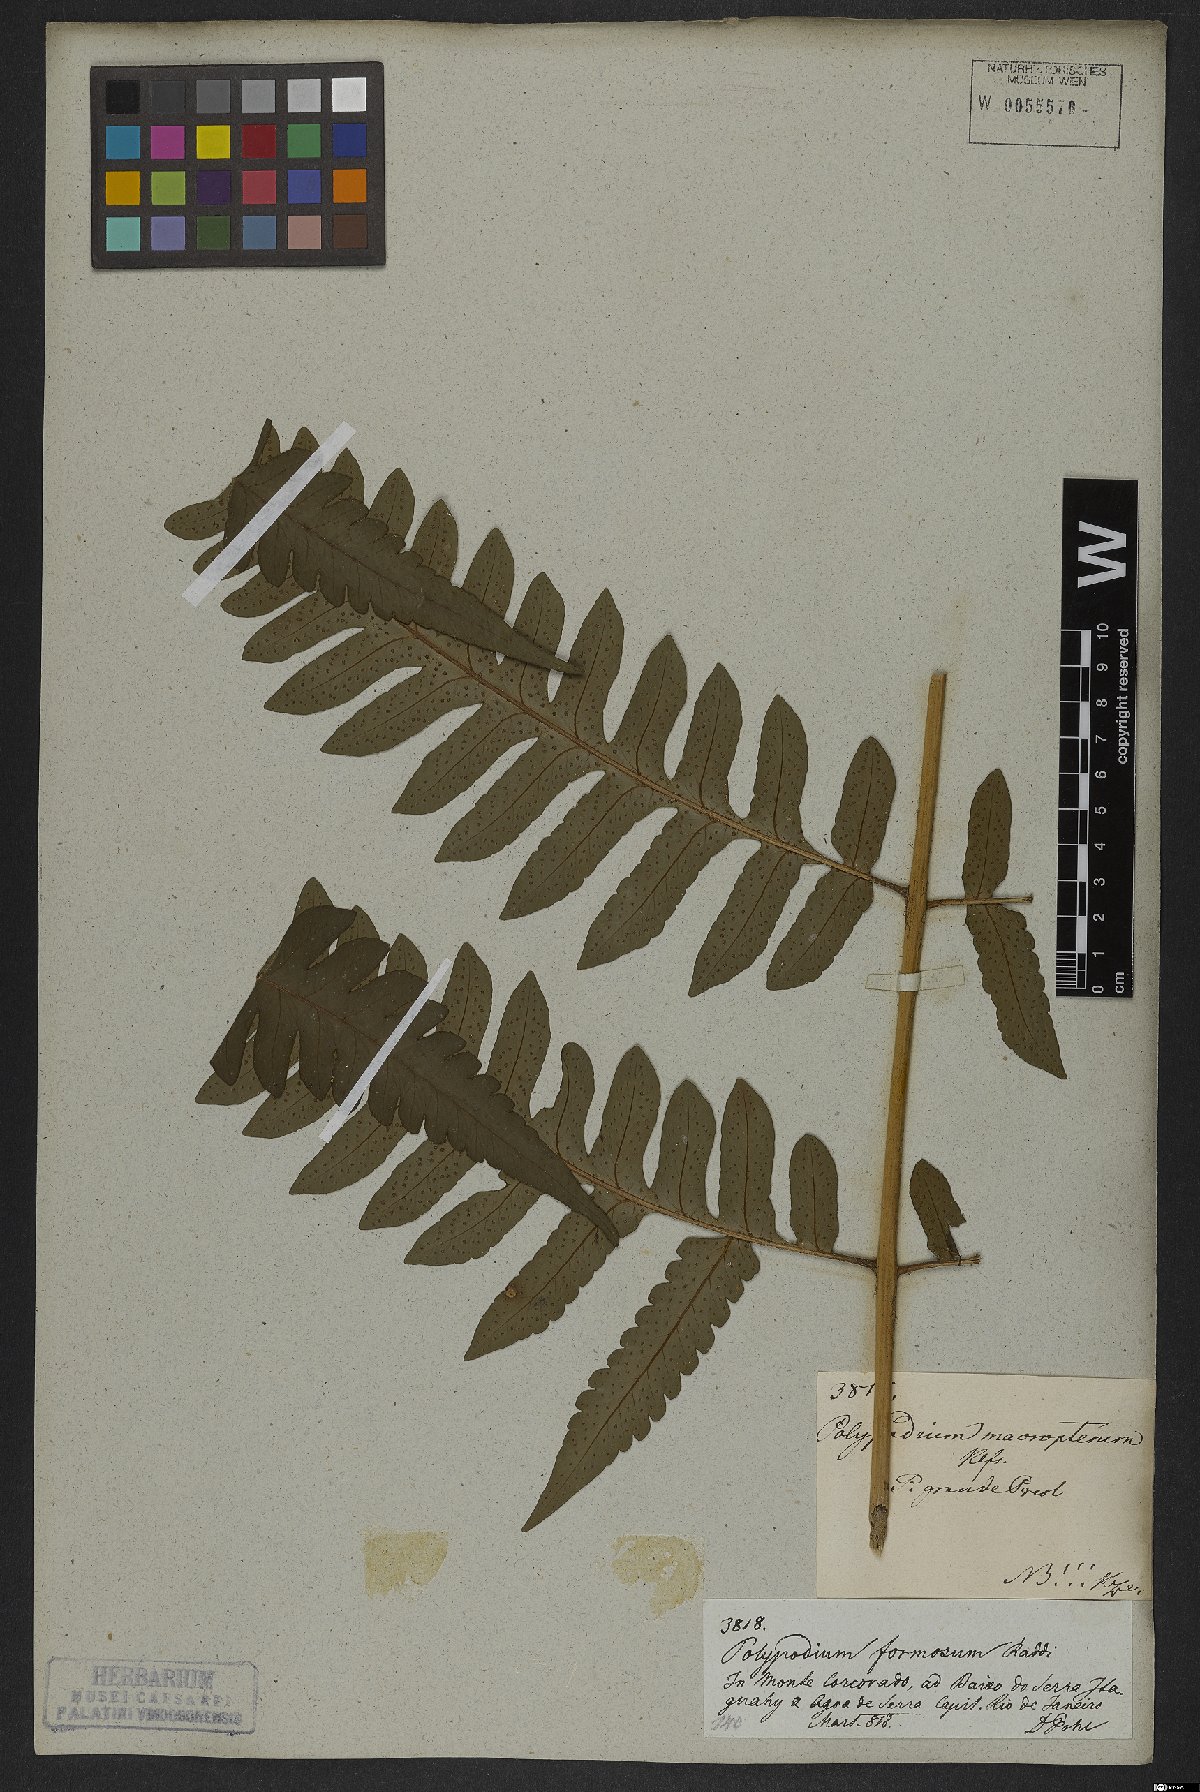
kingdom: Plantae
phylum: Tracheophyta
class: Polypodiopsida
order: Polypodiales
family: Dryopteridaceae
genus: Megalastrum
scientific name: Megalastrum grande
